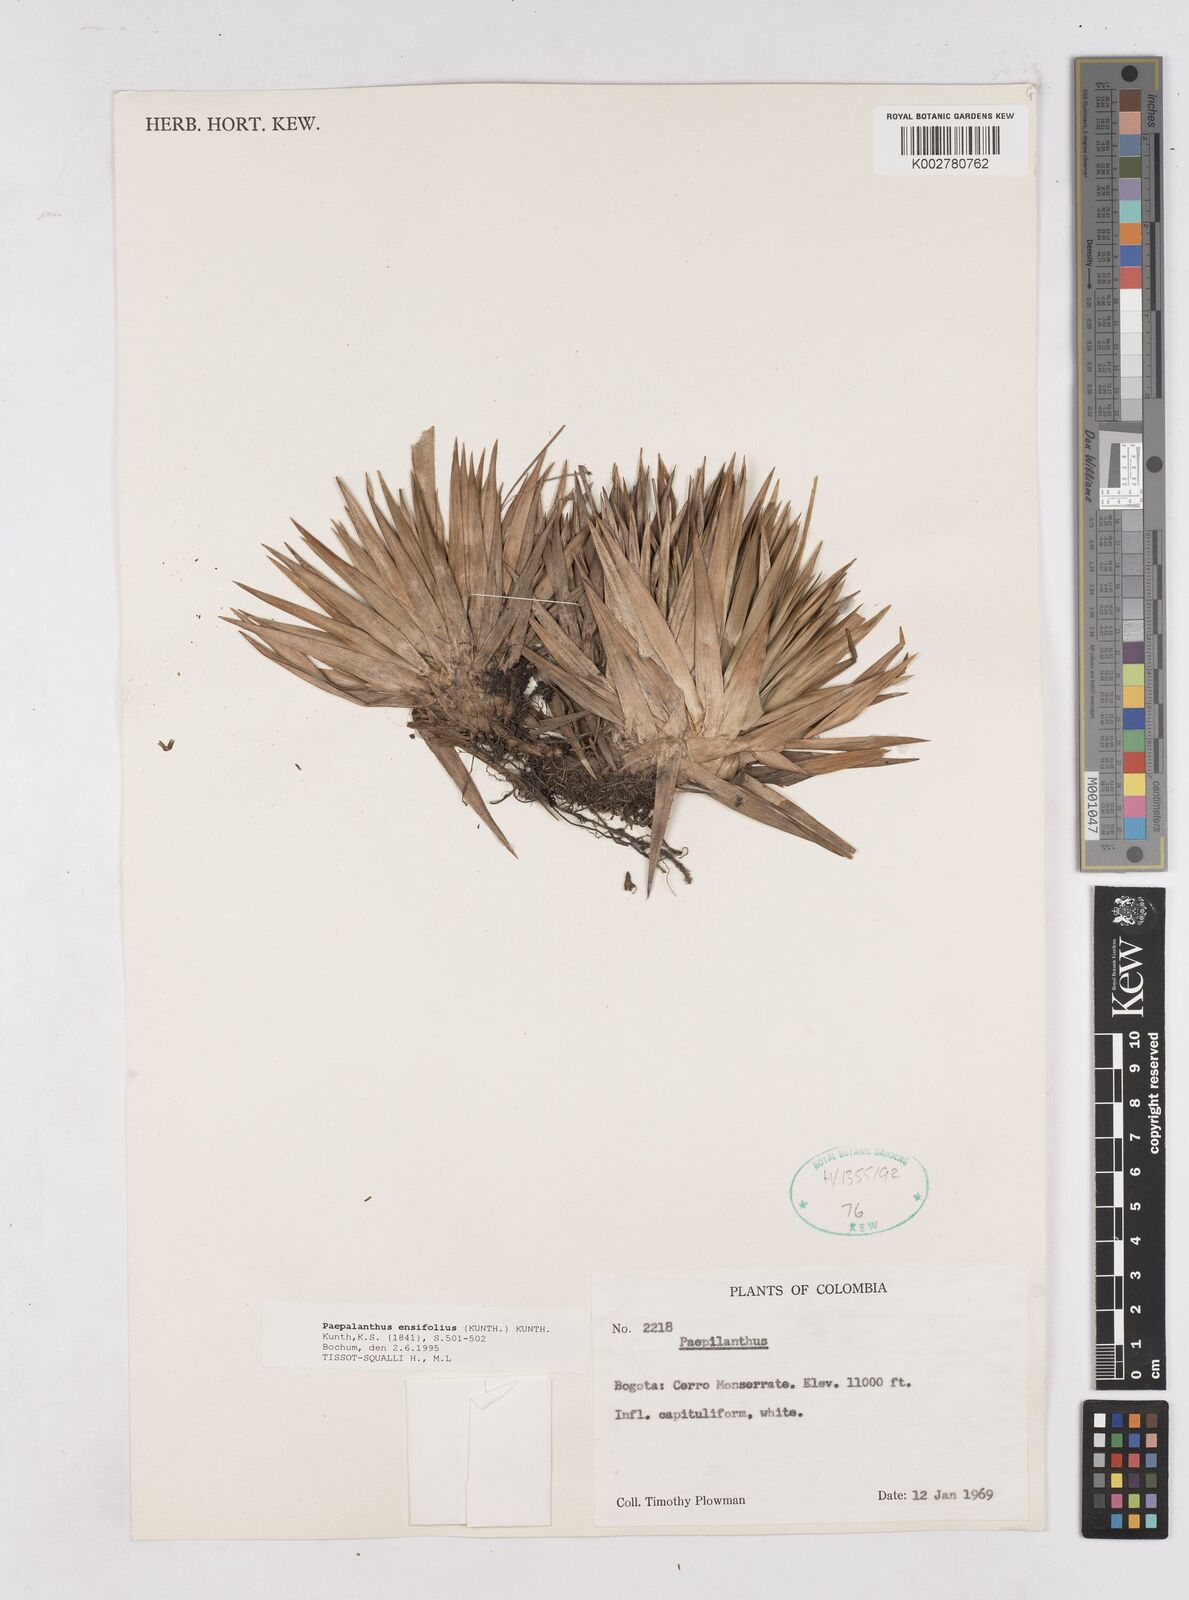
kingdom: Plantae
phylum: Tracheophyta
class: Liliopsida
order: Poales
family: Eriocaulaceae
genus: Paepalanthus
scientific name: Paepalanthus ensifolius
